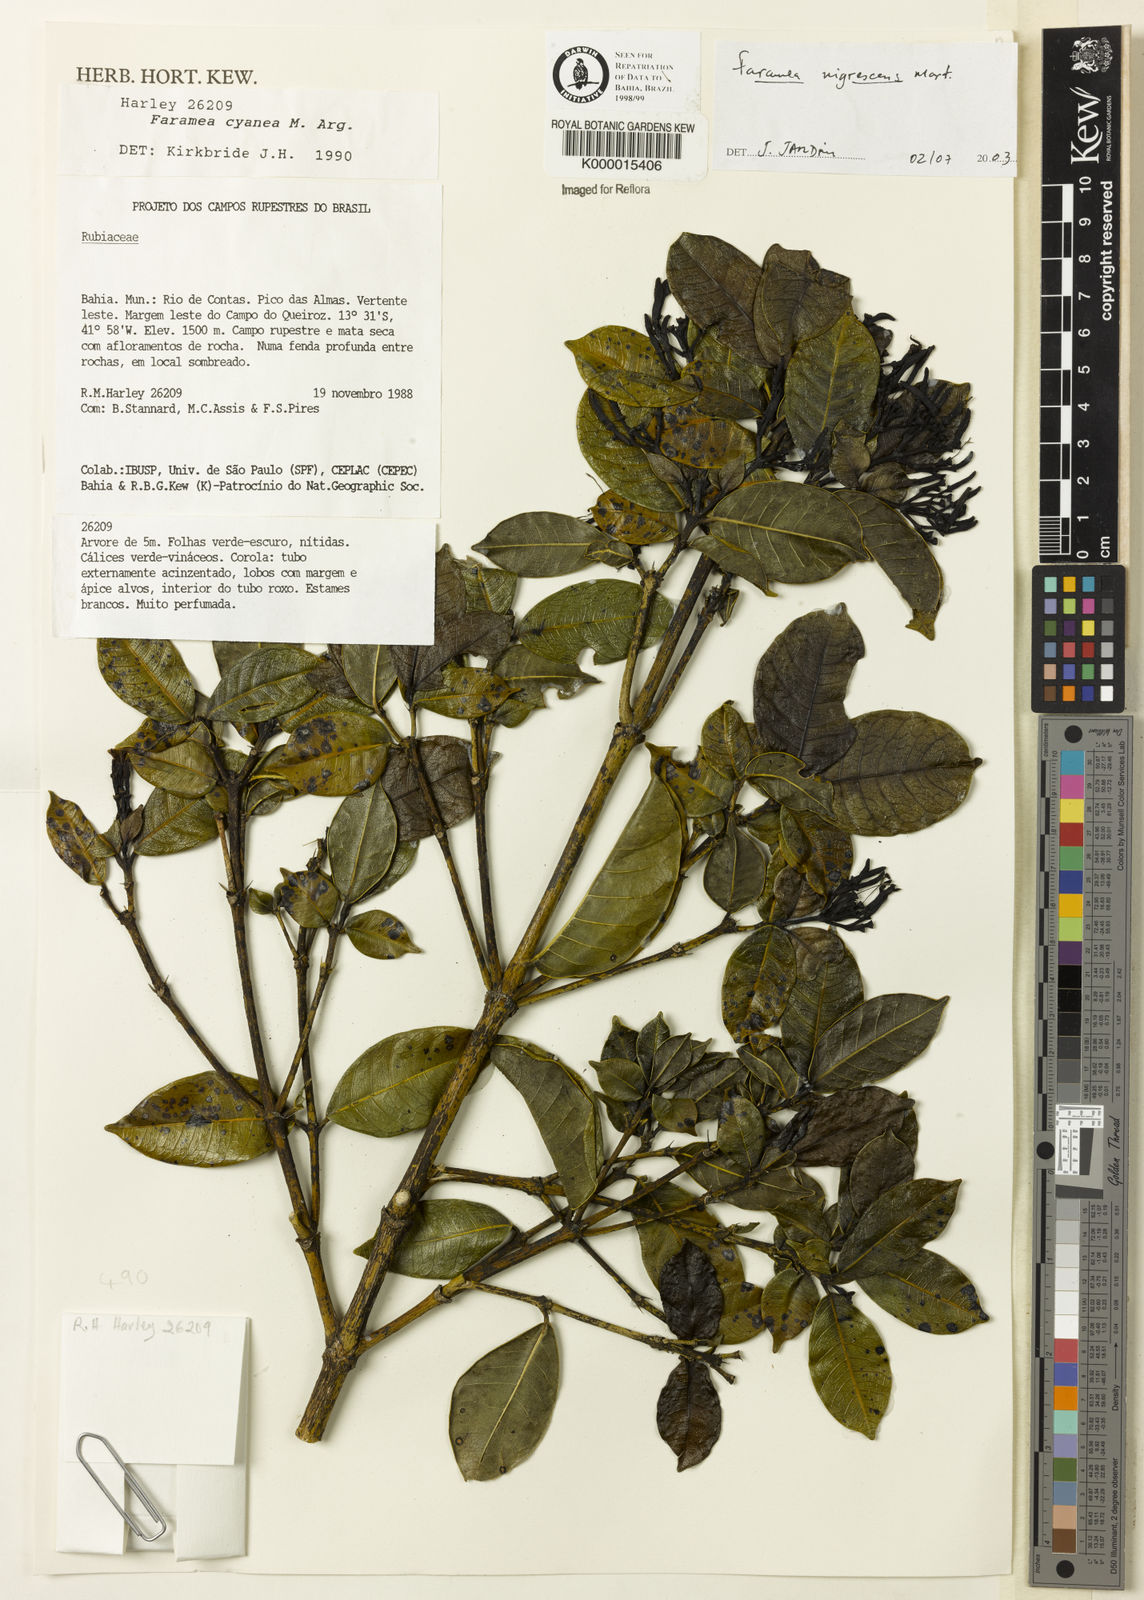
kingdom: Plantae
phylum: Tracheophyta
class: Magnoliopsida
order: Gentianales
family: Rubiaceae
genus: Faramea
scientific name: Faramea nigrescens
